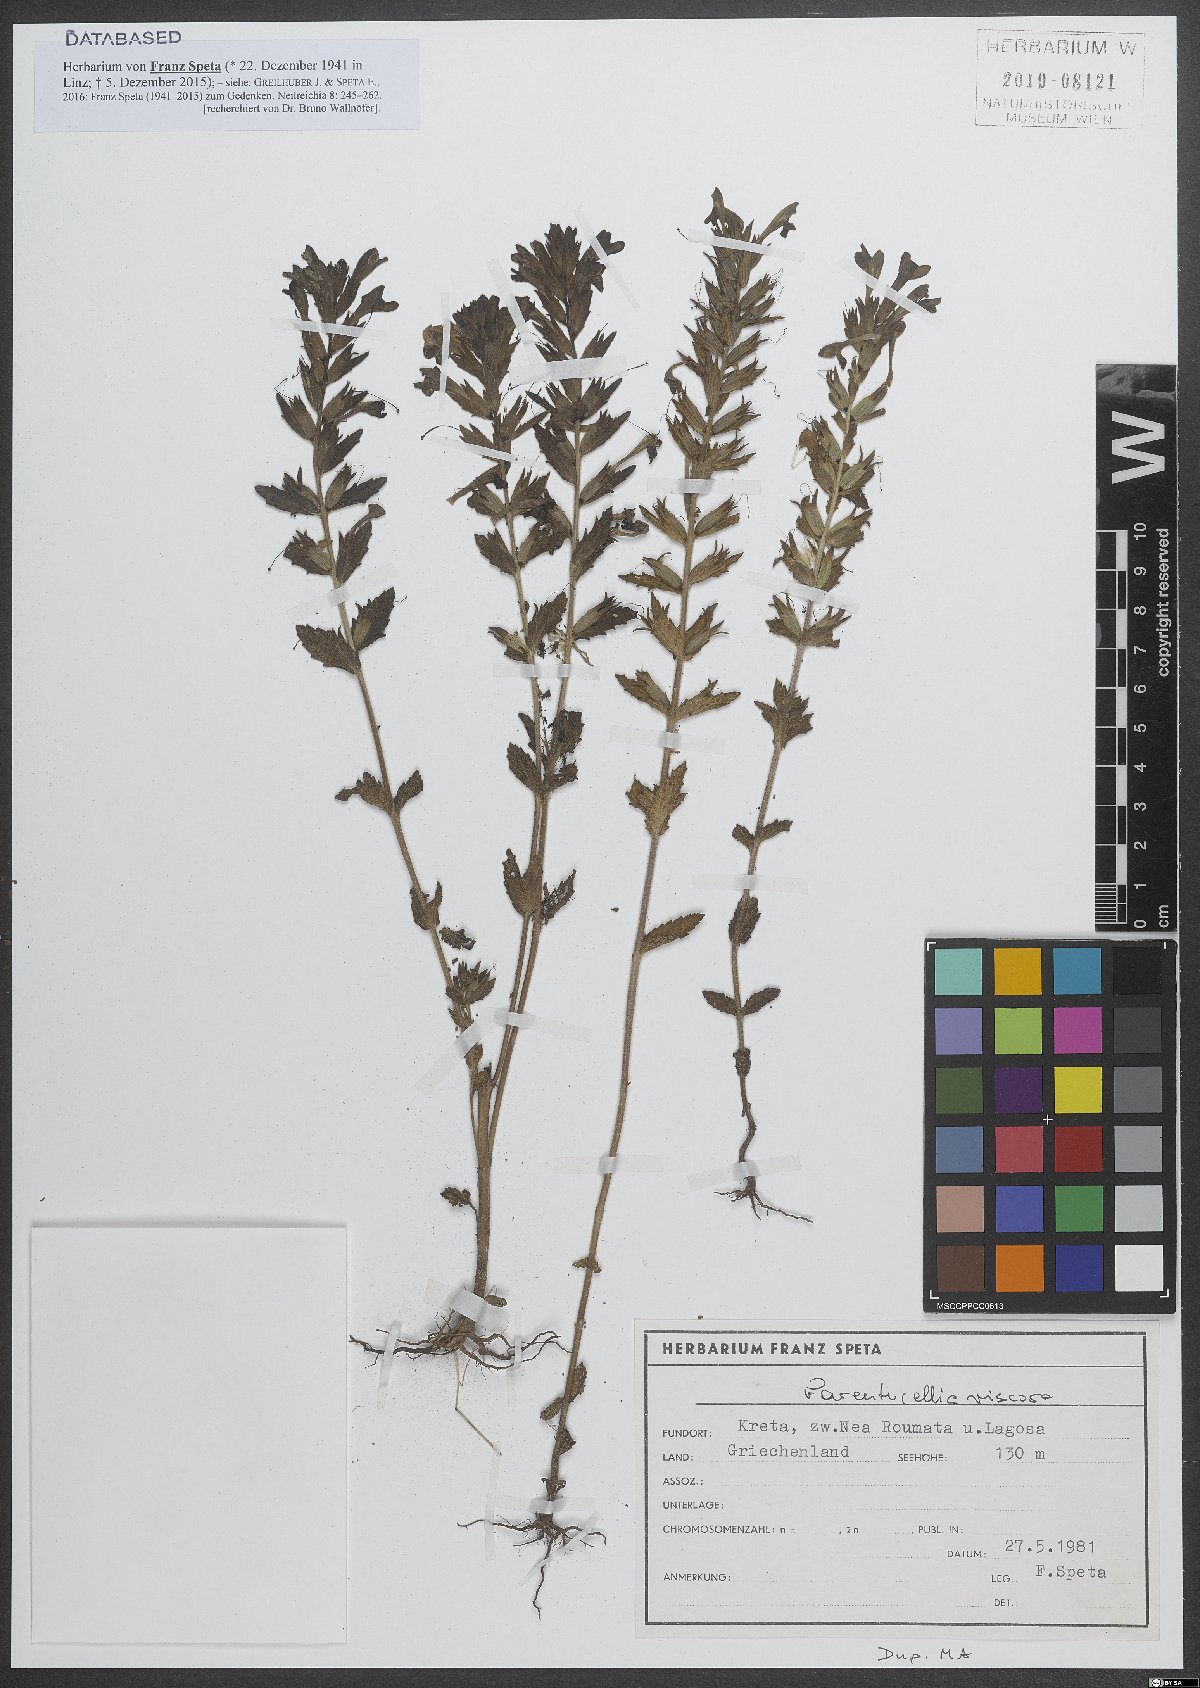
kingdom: Plantae
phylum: Tracheophyta
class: Magnoliopsida
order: Lamiales
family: Orobanchaceae
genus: Bellardia
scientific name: Bellardia viscosa
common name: Sticky parentucellia
